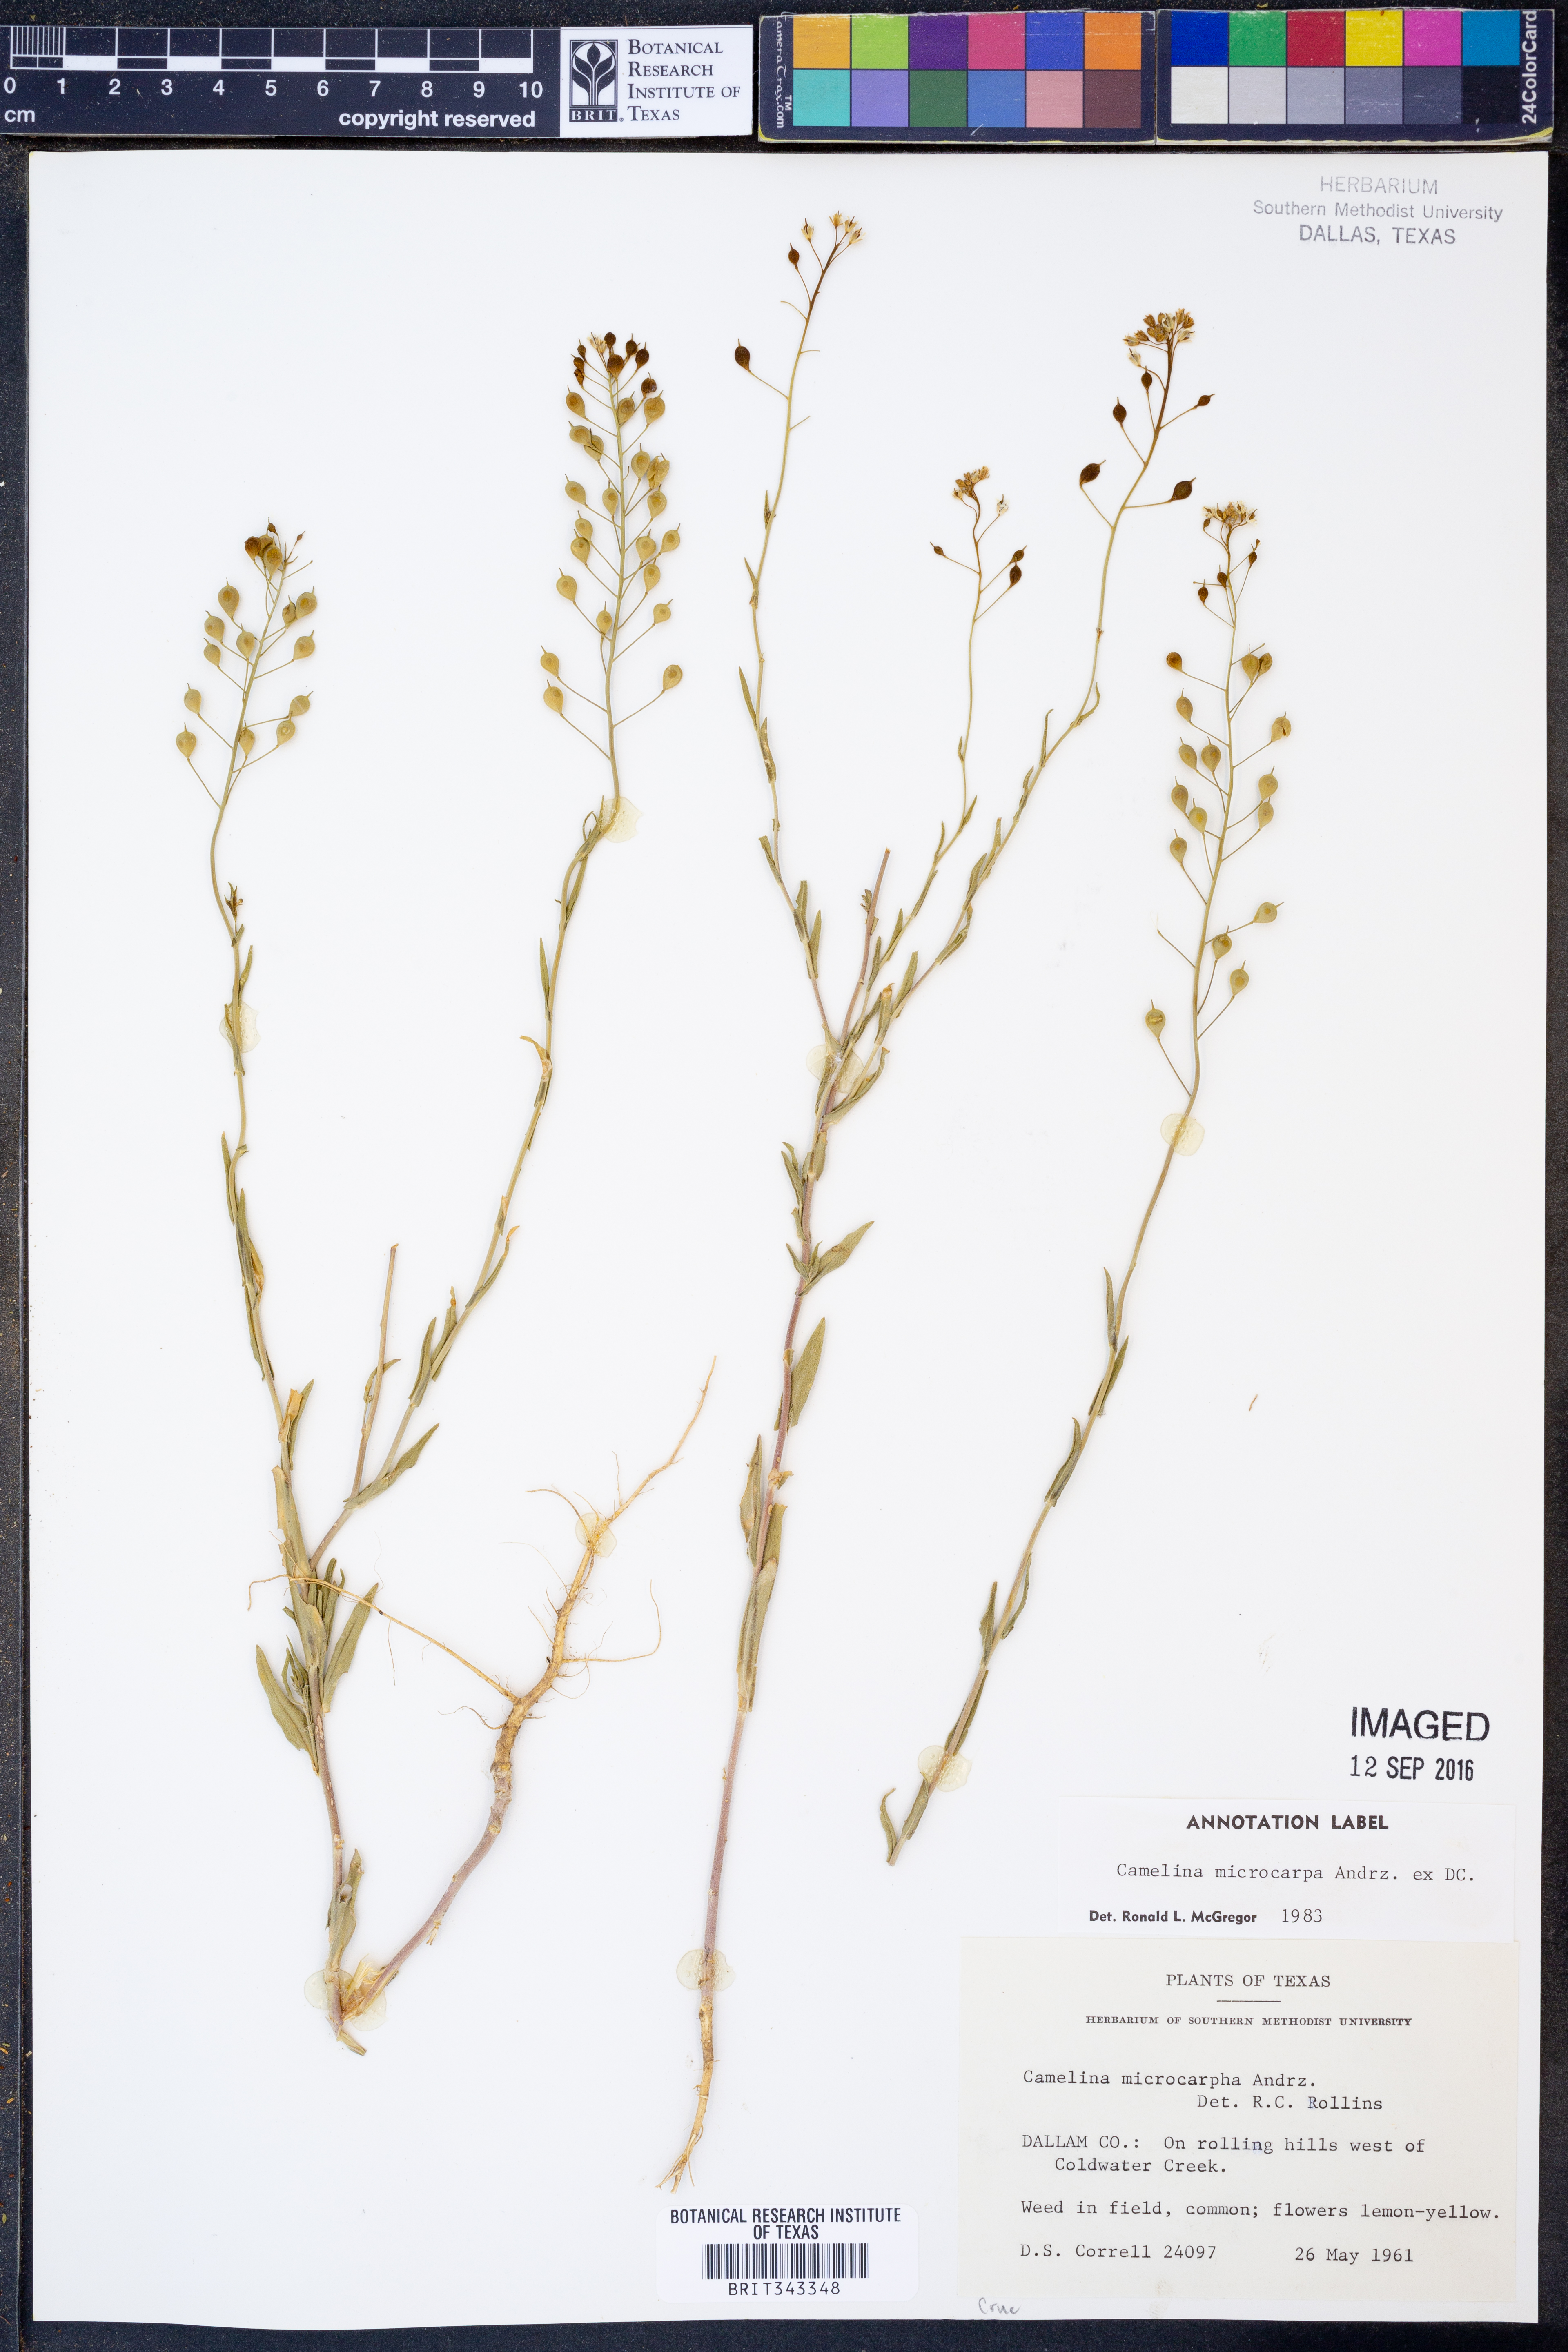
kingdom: Plantae
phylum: Tracheophyta
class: Magnoliopsida
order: Brassicales
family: Brassicaceae
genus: Camelina
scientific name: Camelina microcarpa
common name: Lesser gold-of-pleasure
